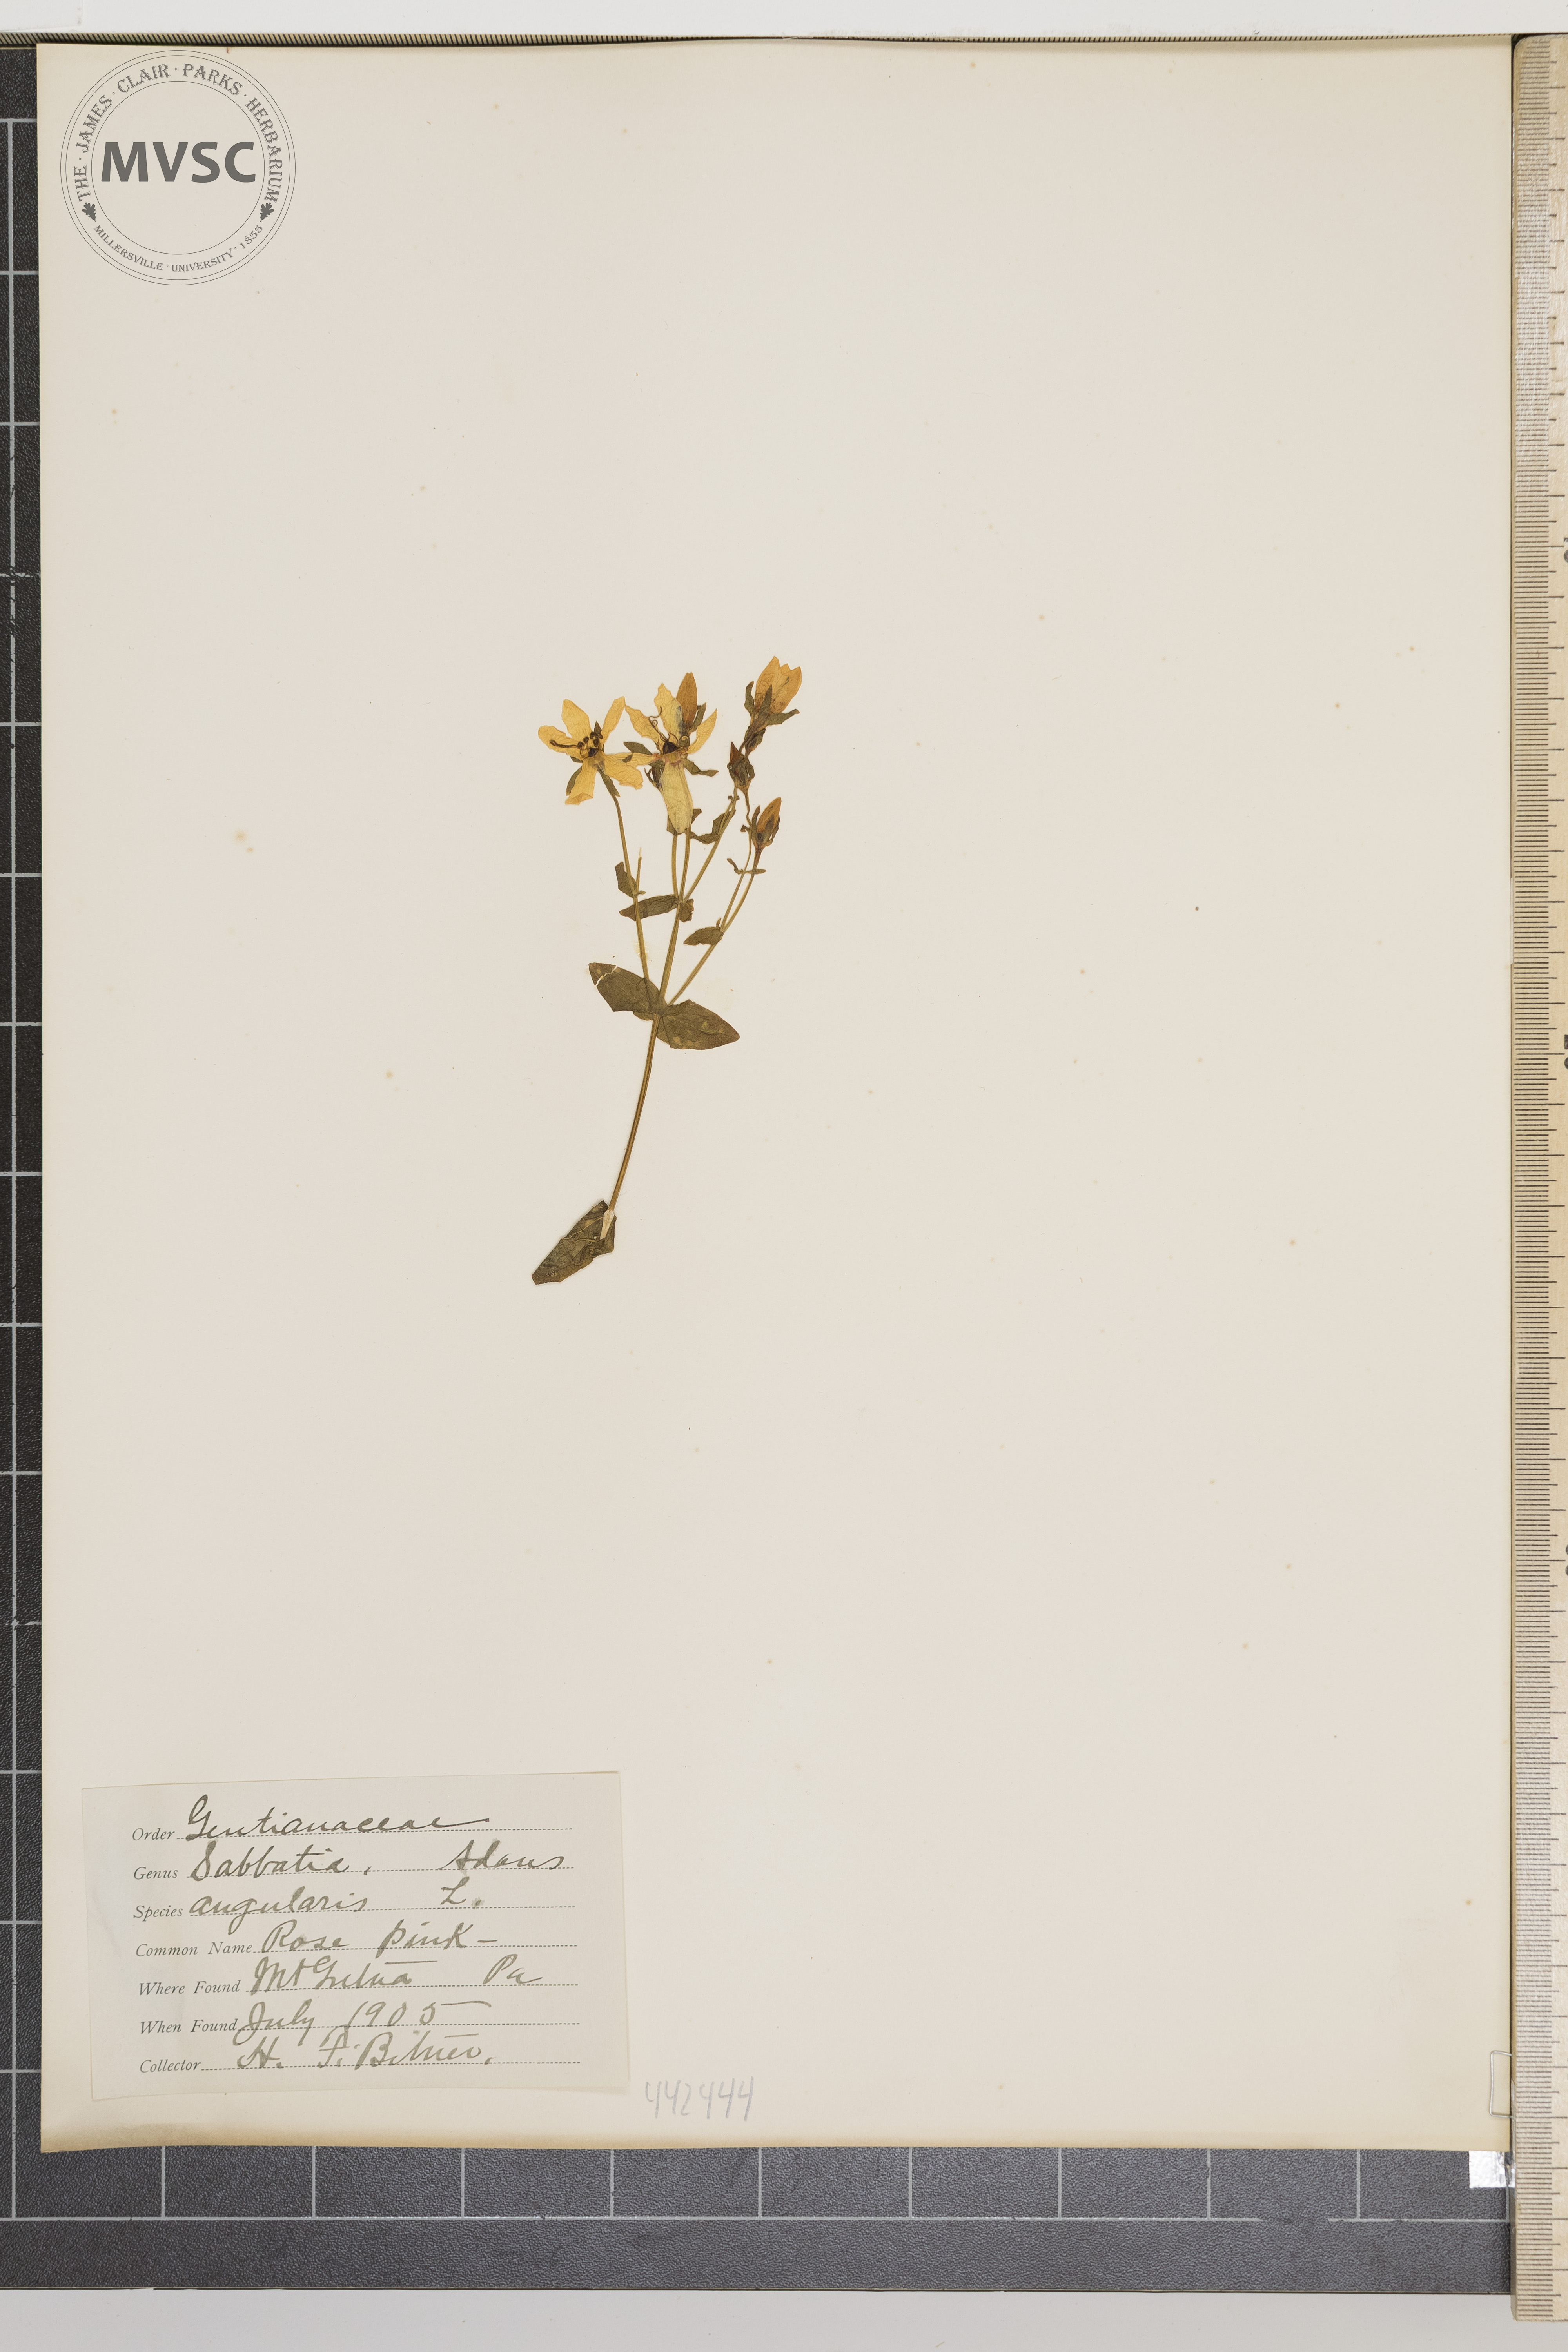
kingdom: Plantae
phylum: Tracheophyta
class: Magnoliopsida
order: Gentianales
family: Gentianaceae
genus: Sabatia
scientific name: Sabatia angularis
